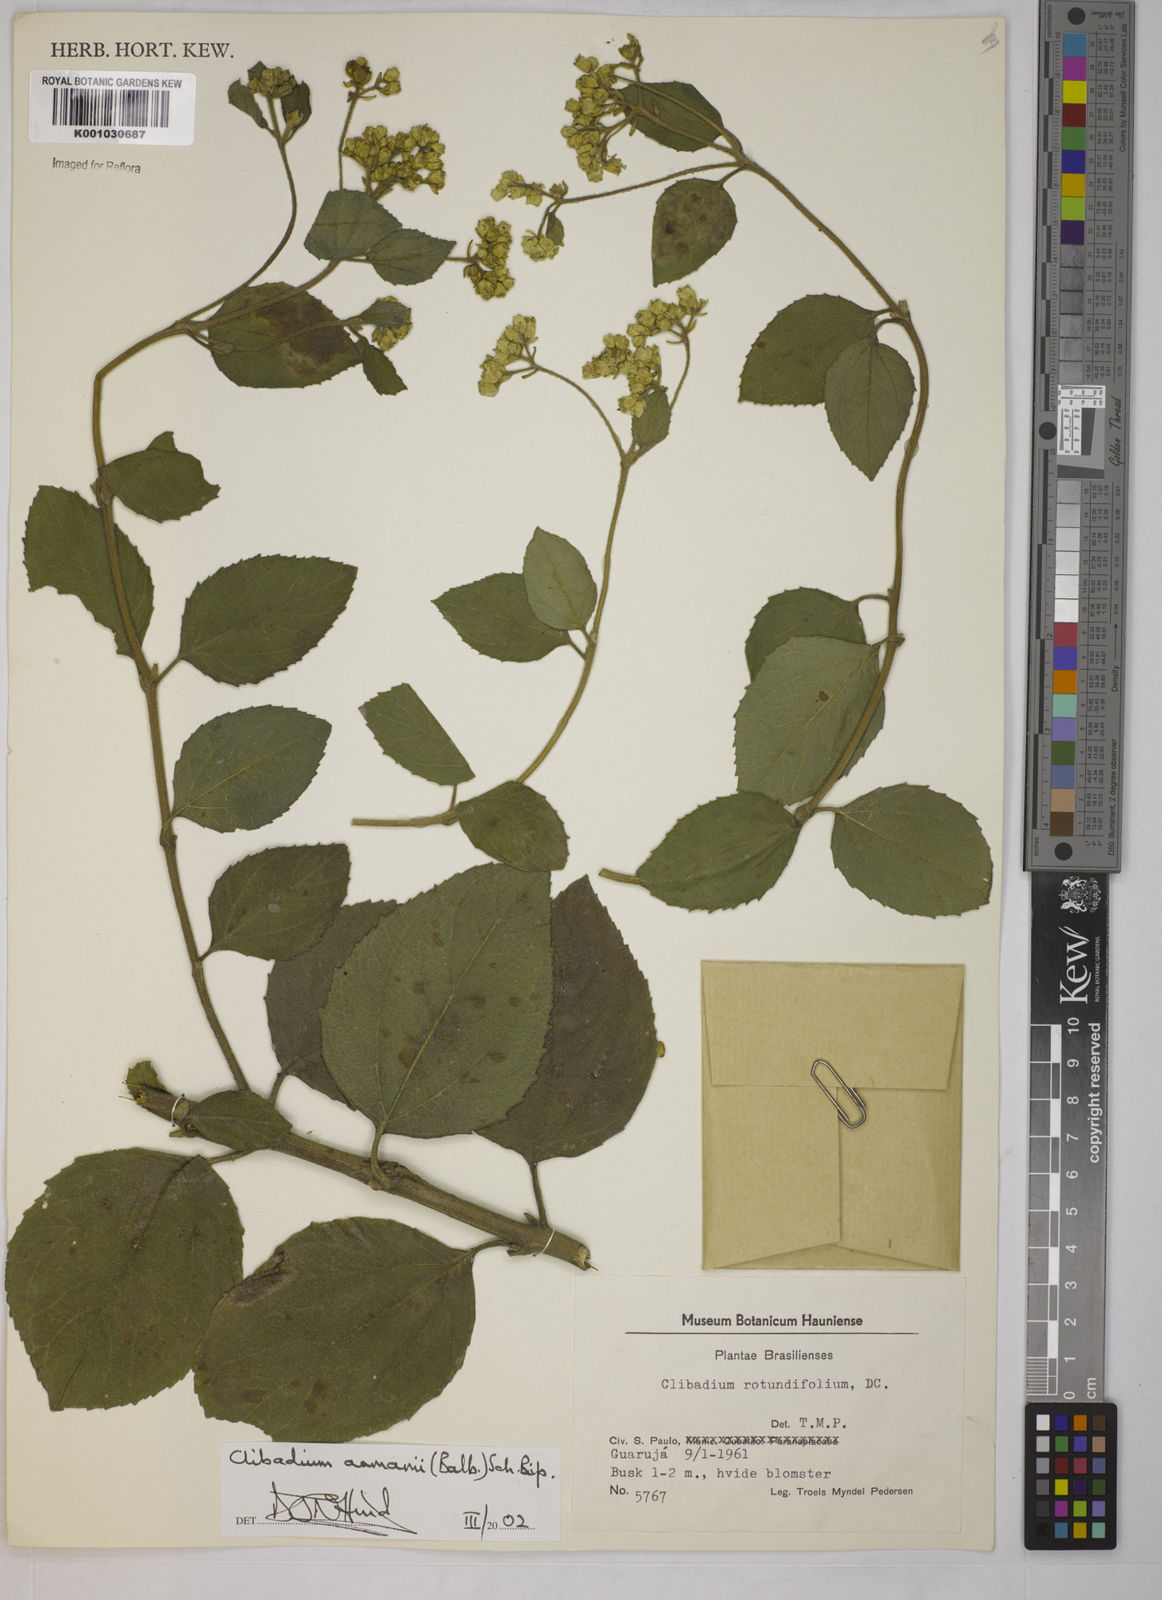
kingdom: Plantae
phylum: Tracheophyta
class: Magnoliopsida
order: Asterales
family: Asteraceae
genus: Clibadium
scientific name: Clibadium armanii
